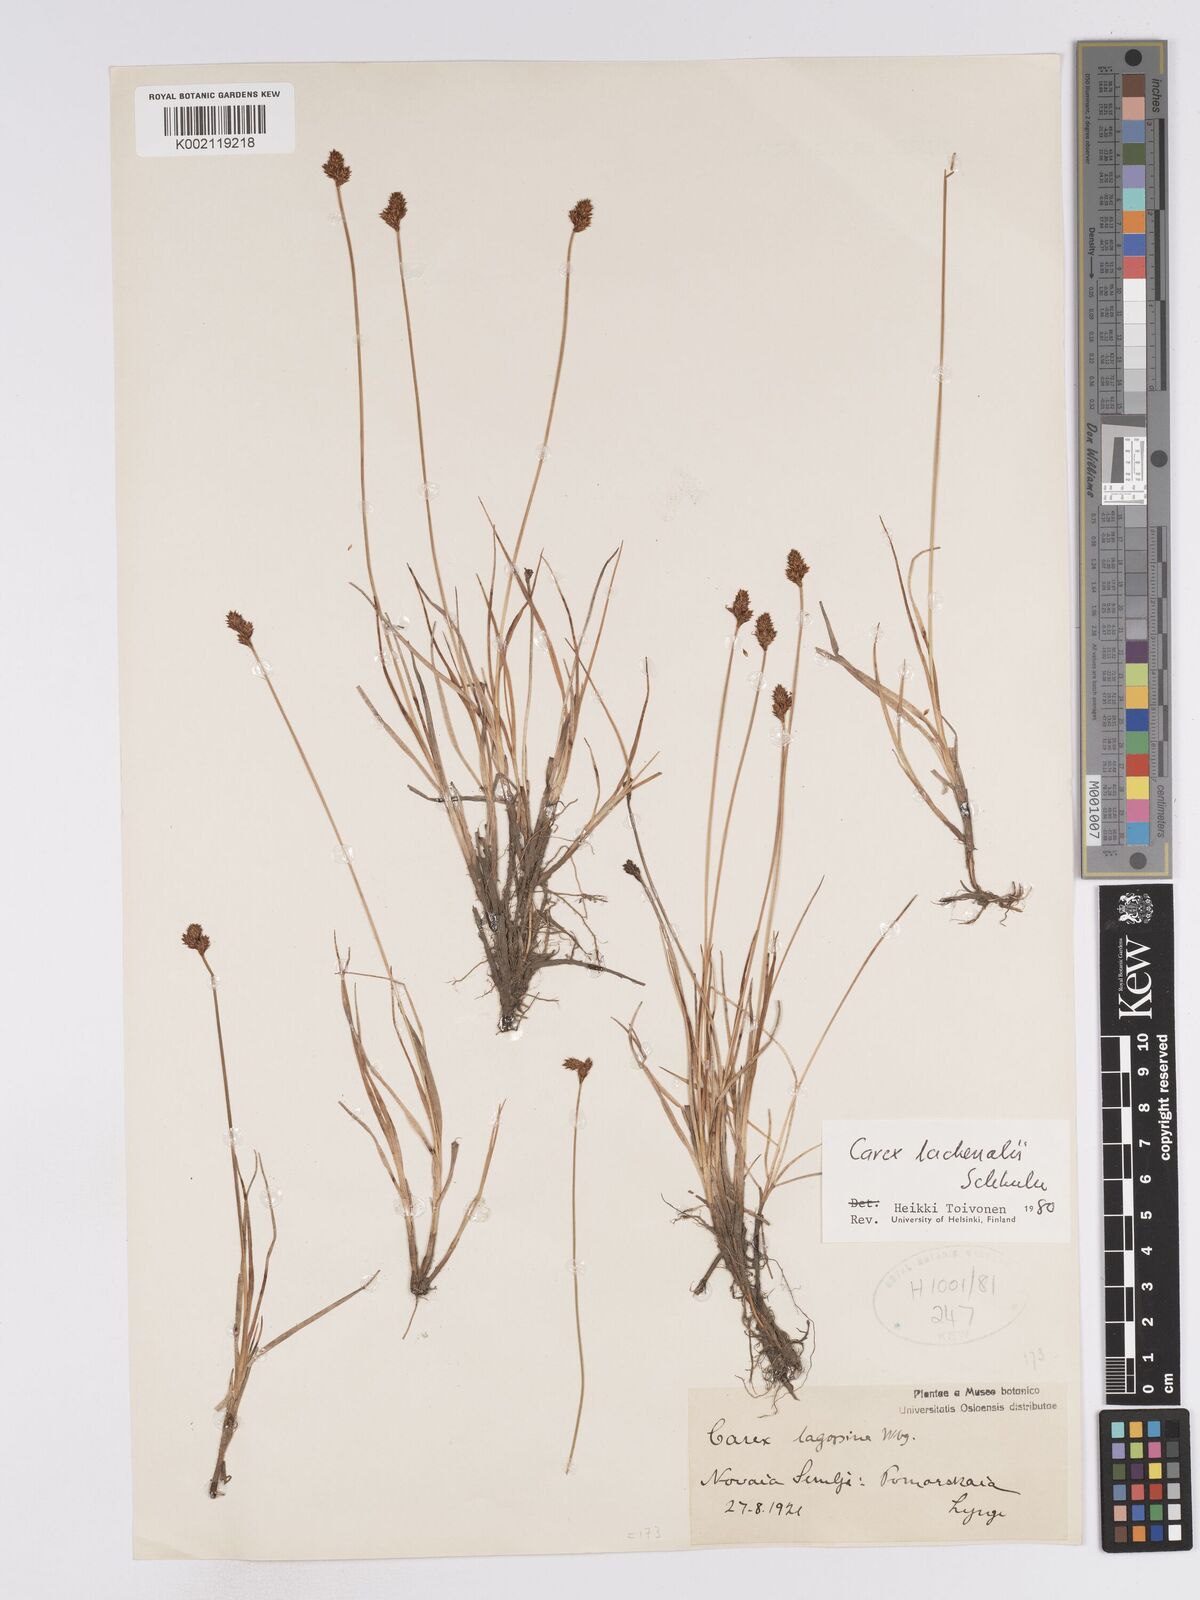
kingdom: Plantae
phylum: Tracheophyta
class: Liliopsida
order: Poales
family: Cyperaceae
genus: Carex
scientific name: Carex lachenalii
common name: Hare's-foot sedge
